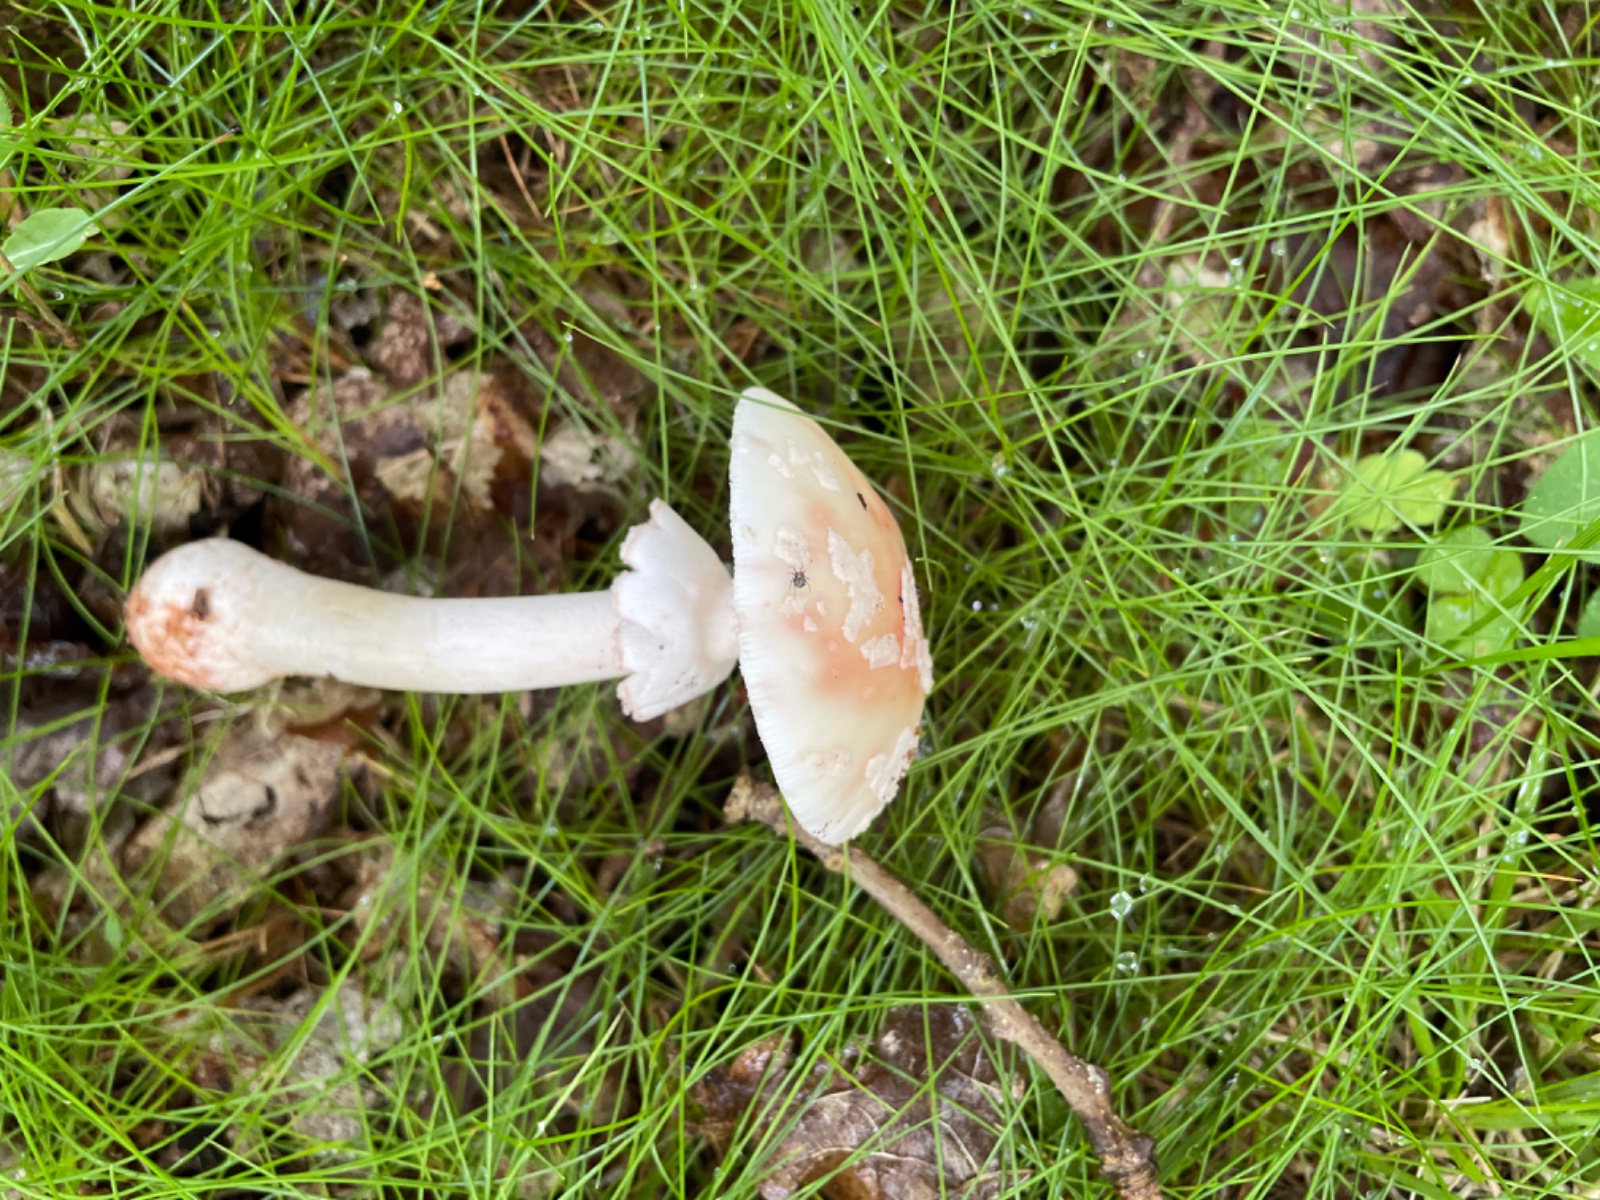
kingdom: Fungi
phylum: Basidiomycota
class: Agaricomycetes
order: Agaricales
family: Amanitaceae
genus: Amanita
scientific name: Amanita rubescens
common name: rødmende fluesvamp
